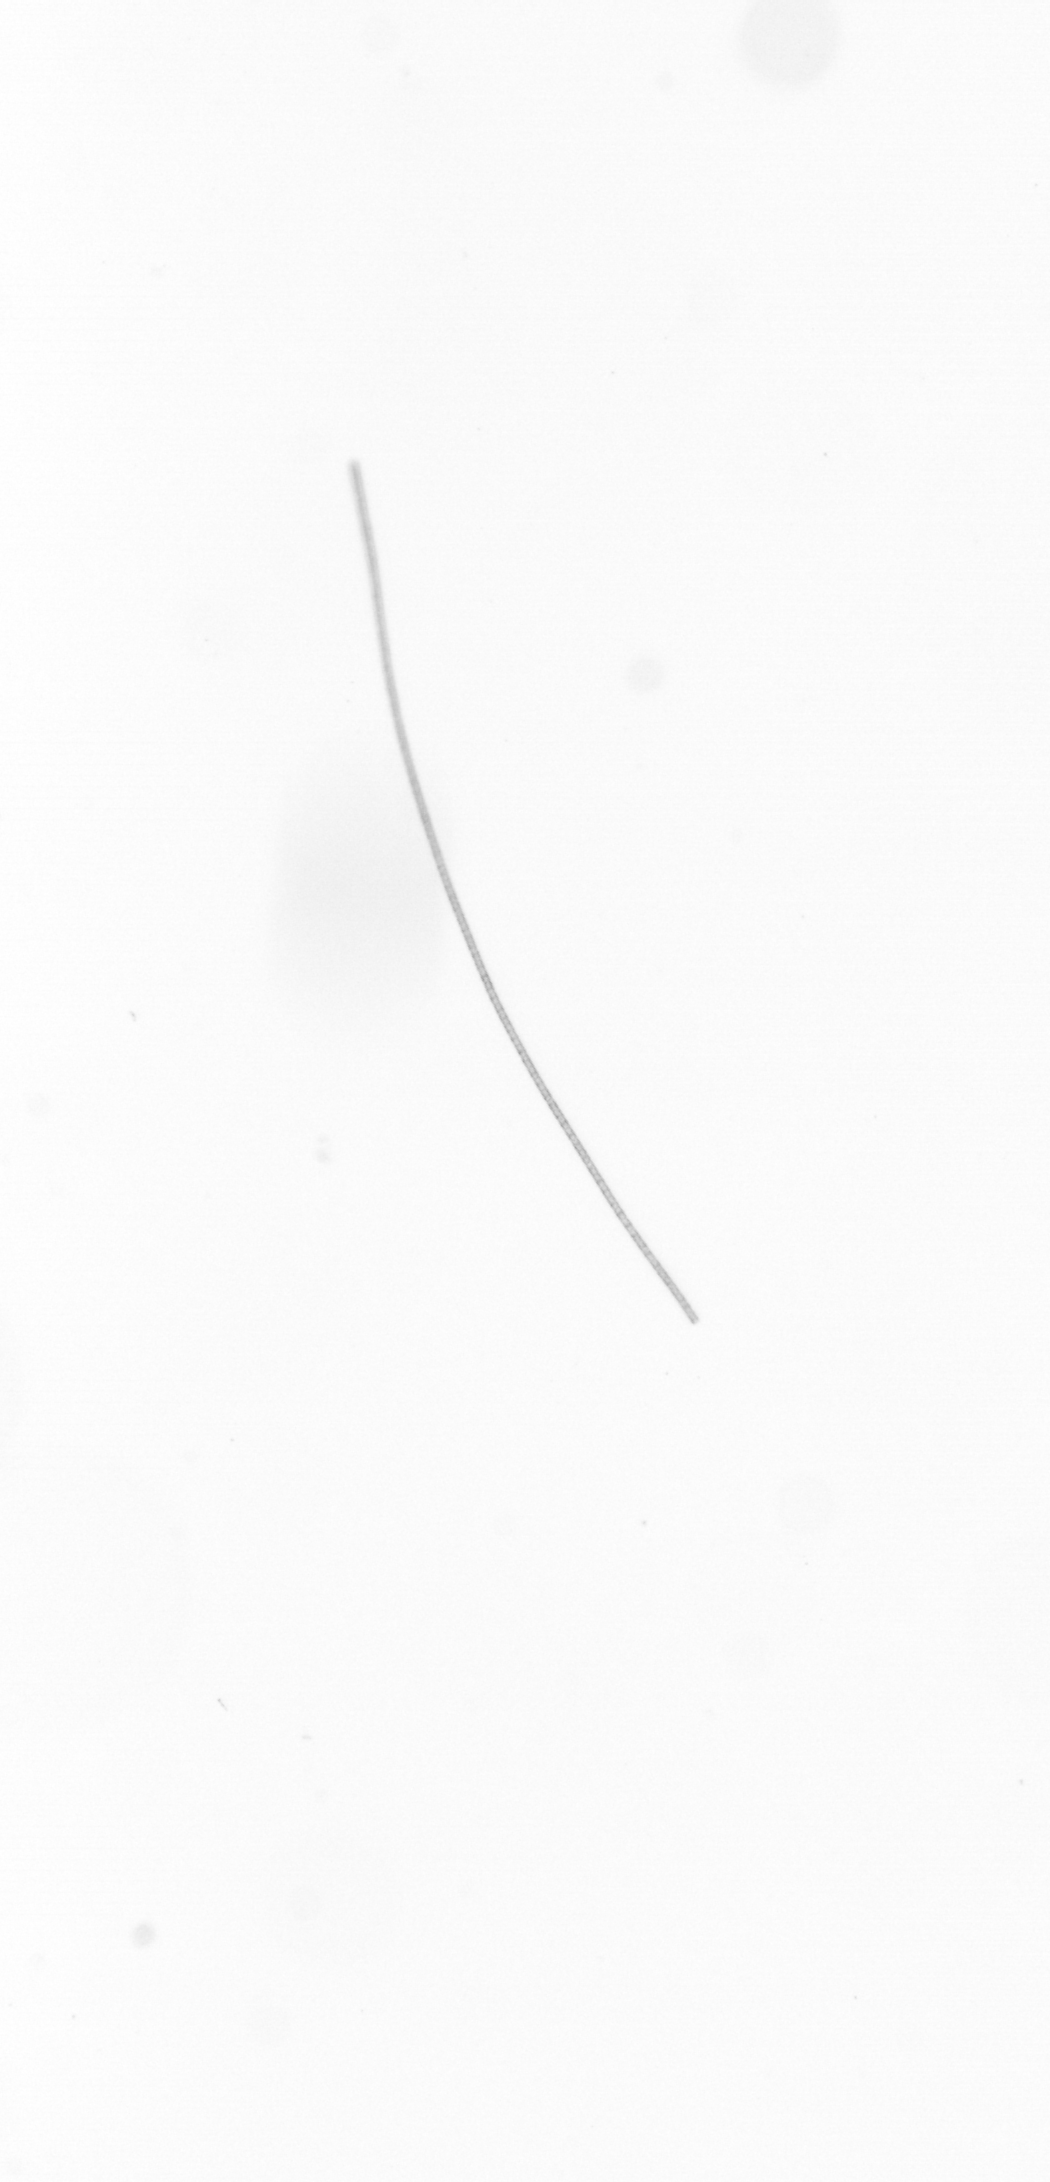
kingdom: Chromista
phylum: Ochrophyta
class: Bacillariophyceae
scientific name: Bacillariophyceae
